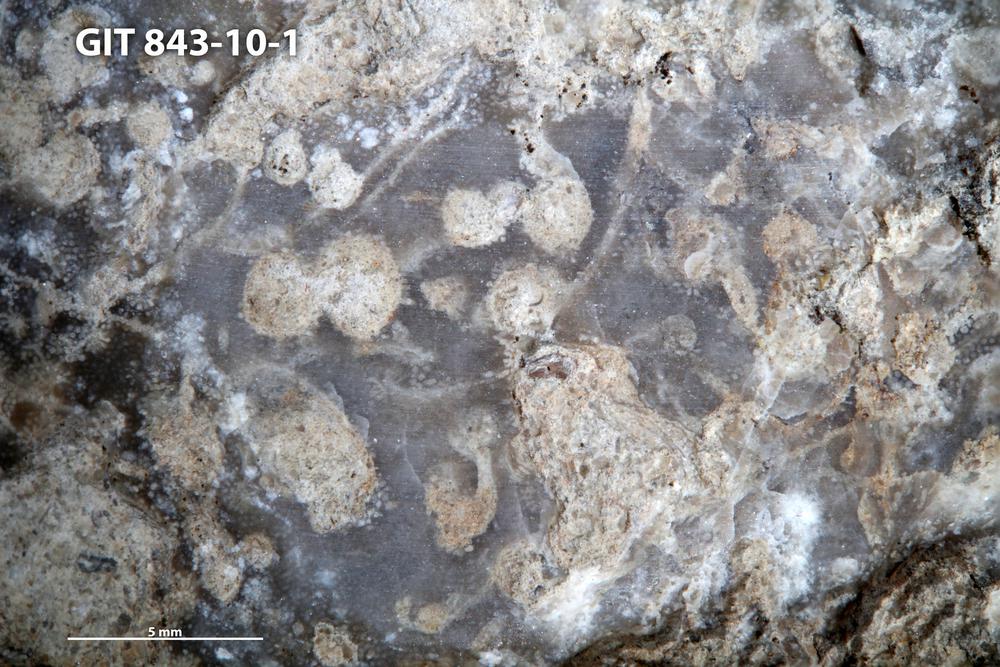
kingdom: Animalia
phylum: Sipuncula
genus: Trypanites
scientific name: Trypanites
